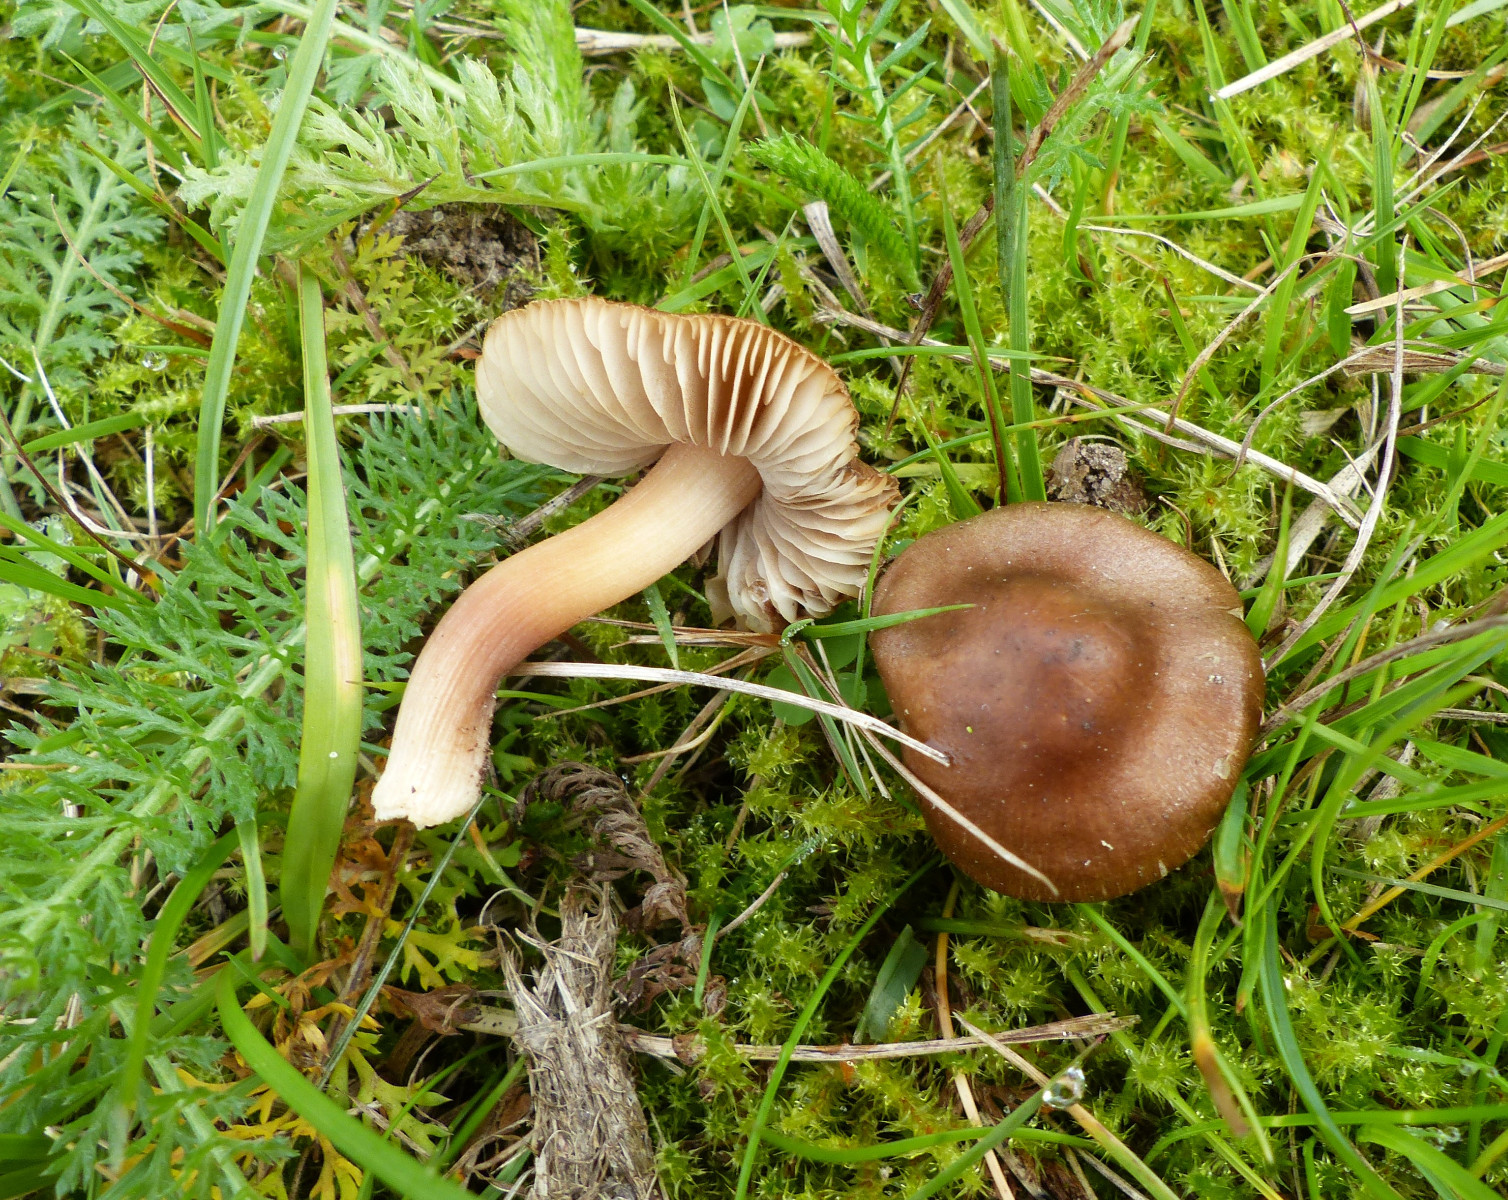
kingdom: Fungi
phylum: Basidiomycota
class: Agaricomycetes
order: Agaricales
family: Inocybaceae
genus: Inocybe
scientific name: Inocybe decemgibbosa
